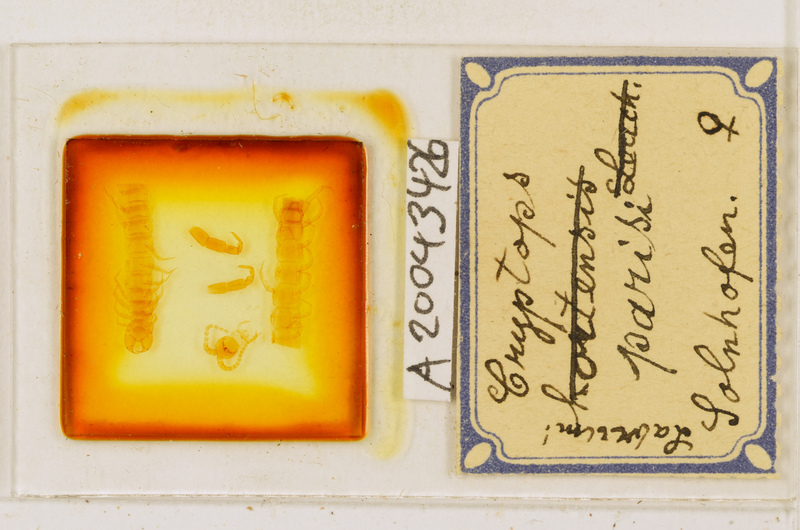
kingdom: Animalia
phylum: Arthropoda
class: Chilopoda
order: Scolopendromorpha
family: Cryptopidae
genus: Cryptops
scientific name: Cryptops parisi
